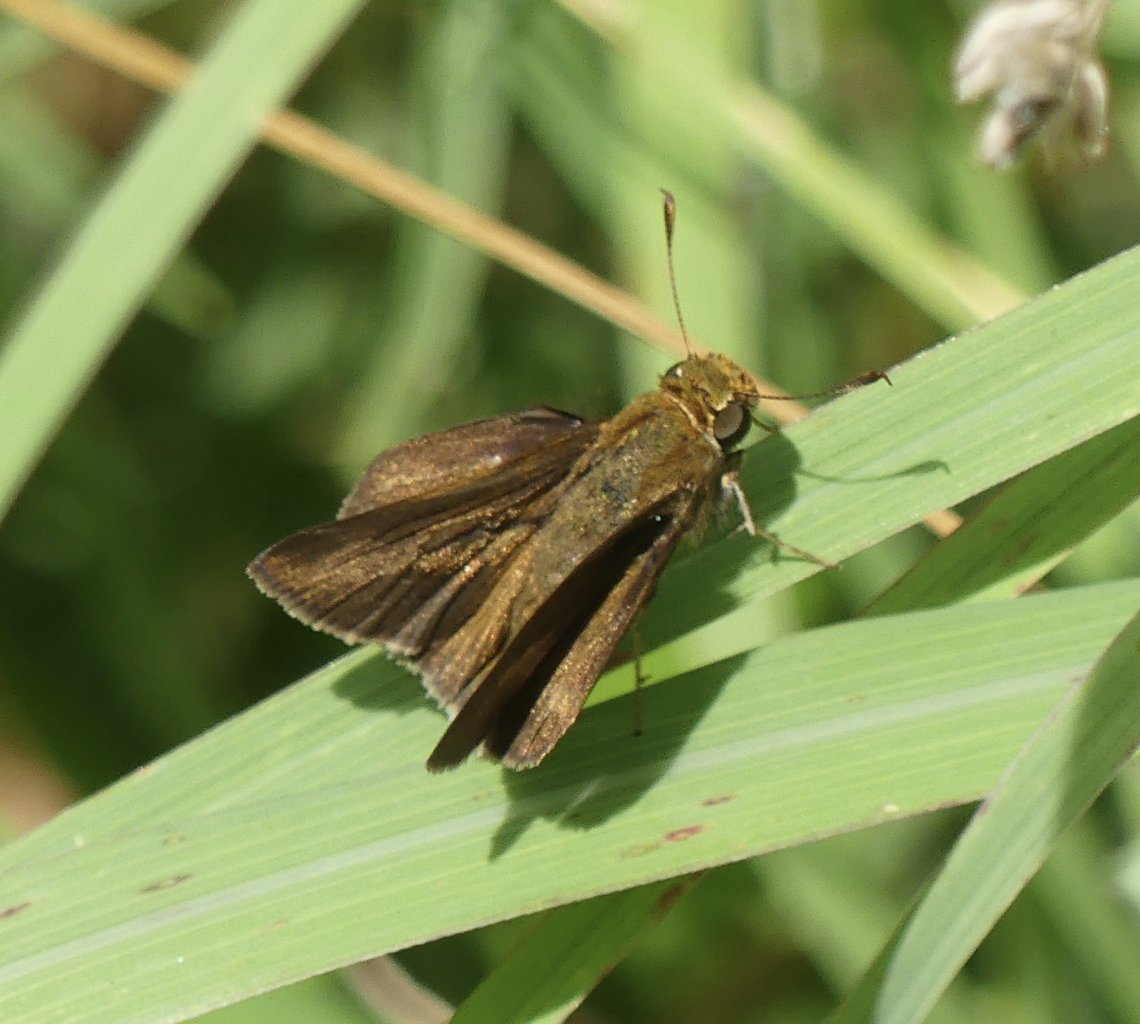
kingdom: Animalia
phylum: Arthropoda
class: Insecta
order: Lepidoptera
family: Hesperiidae
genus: Euphyes
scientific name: Euphyes vestris
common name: Dun Skipper
